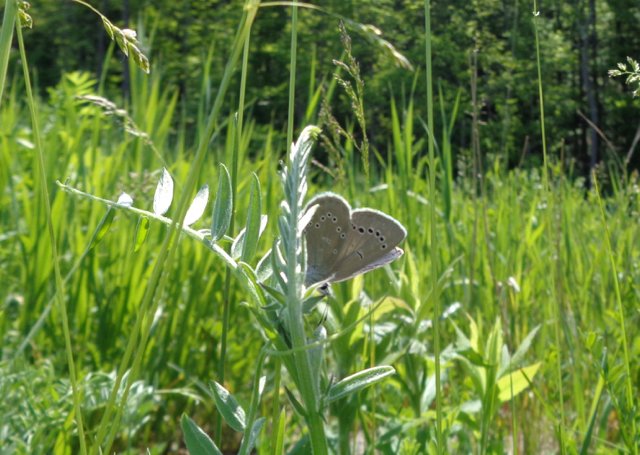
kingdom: Animalia
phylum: Arthropoda
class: Insecta
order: Lepidoptera
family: Lycaenidae
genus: Glaucopsyche
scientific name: Glaucopsyche lygdamus
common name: Silvery Blue
